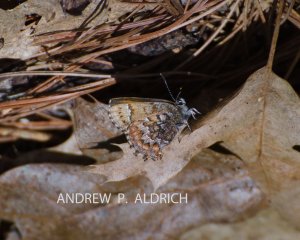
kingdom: Animalia
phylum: Arthropoda
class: Insecta
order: Lepidoptera
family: Lycaenidae
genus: Incisalia
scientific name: Incisalia niphon
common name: Eastern Pine Elfin
